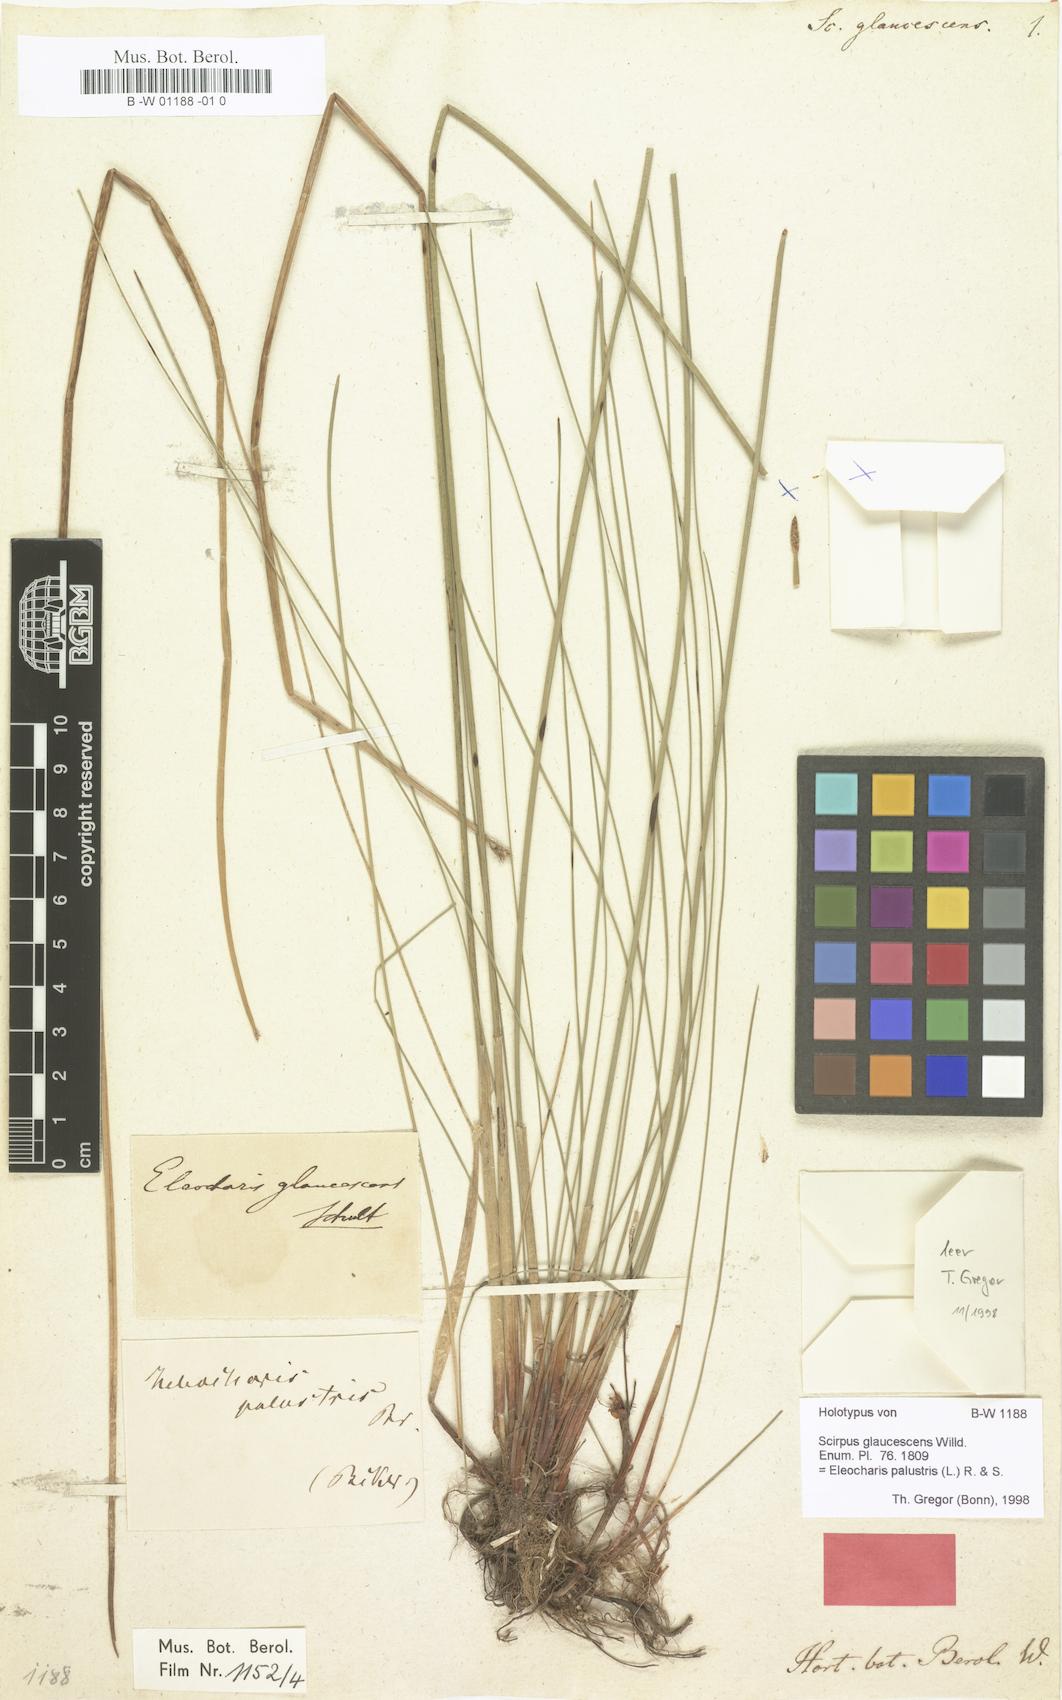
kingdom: Plantae
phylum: Tracheophyta
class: Liliopsida
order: Poales
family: Cyperaceae
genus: Eleocharis
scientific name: Eleocharis palustris
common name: Common spike-rush
